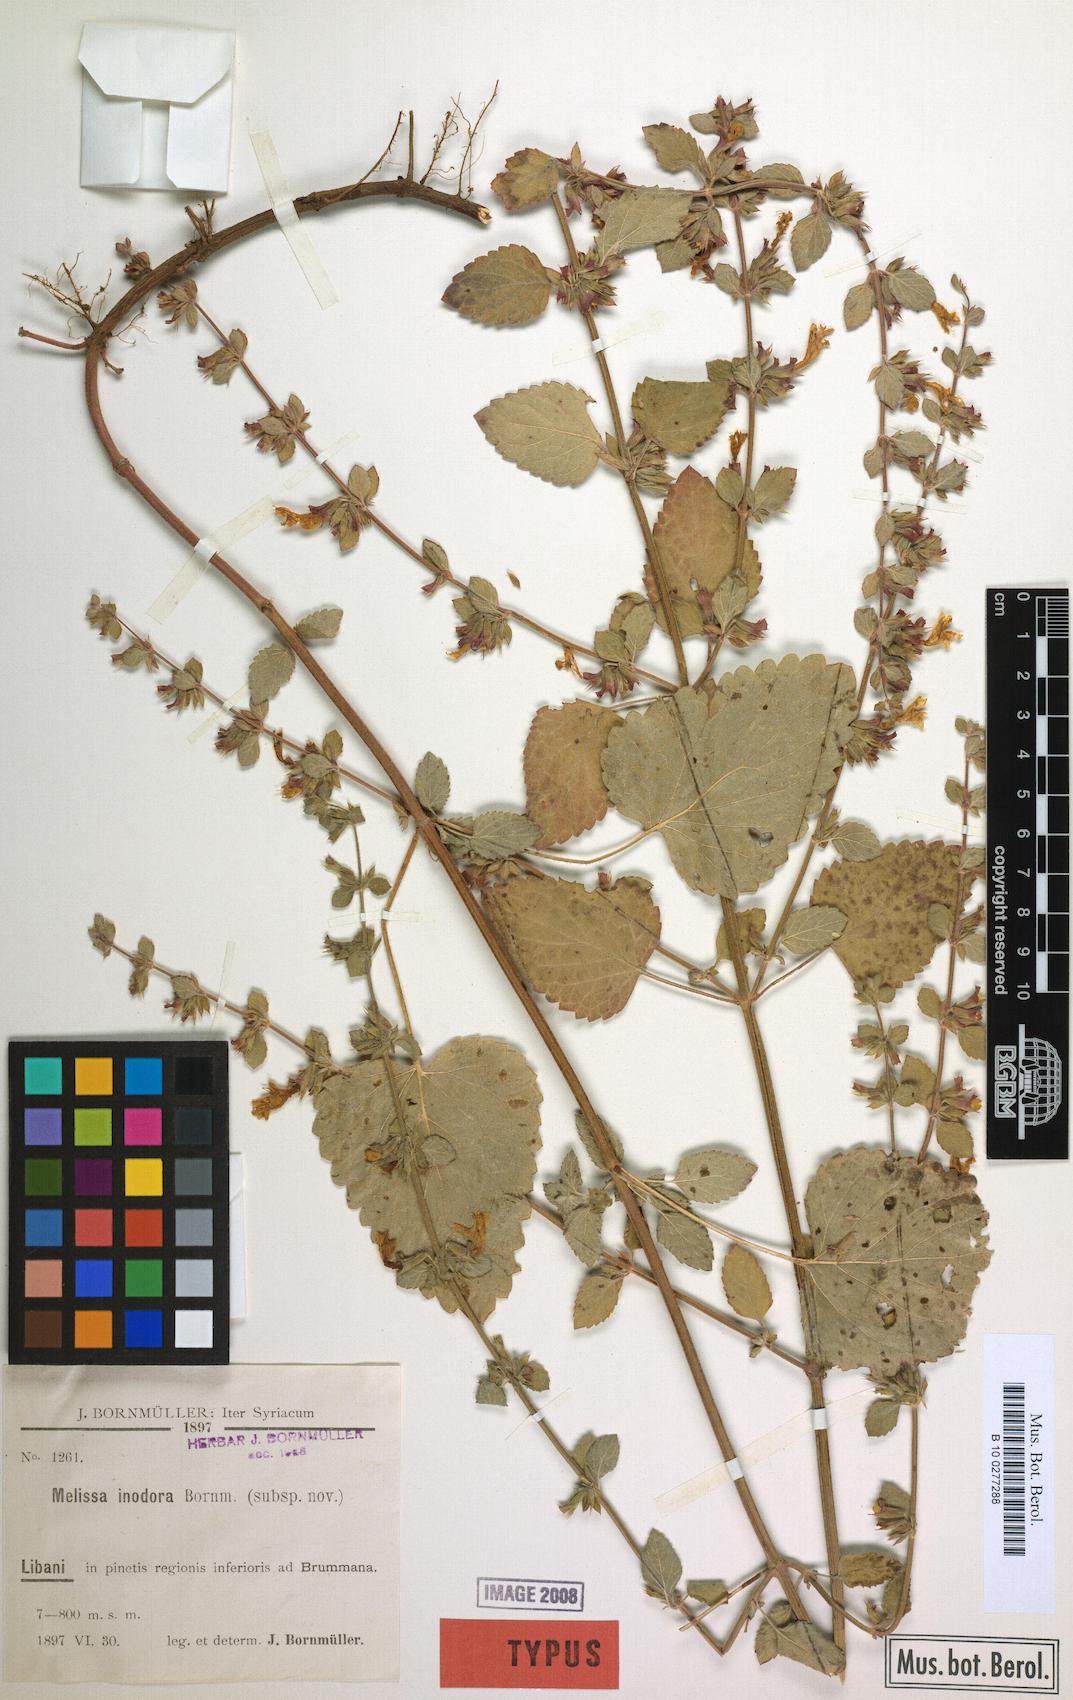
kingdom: Plantae
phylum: Tracheophyta
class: Magnoliopsida
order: Lamiales
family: Lamiaceae
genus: Melissa
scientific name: Melissa officinalis
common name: Balm
